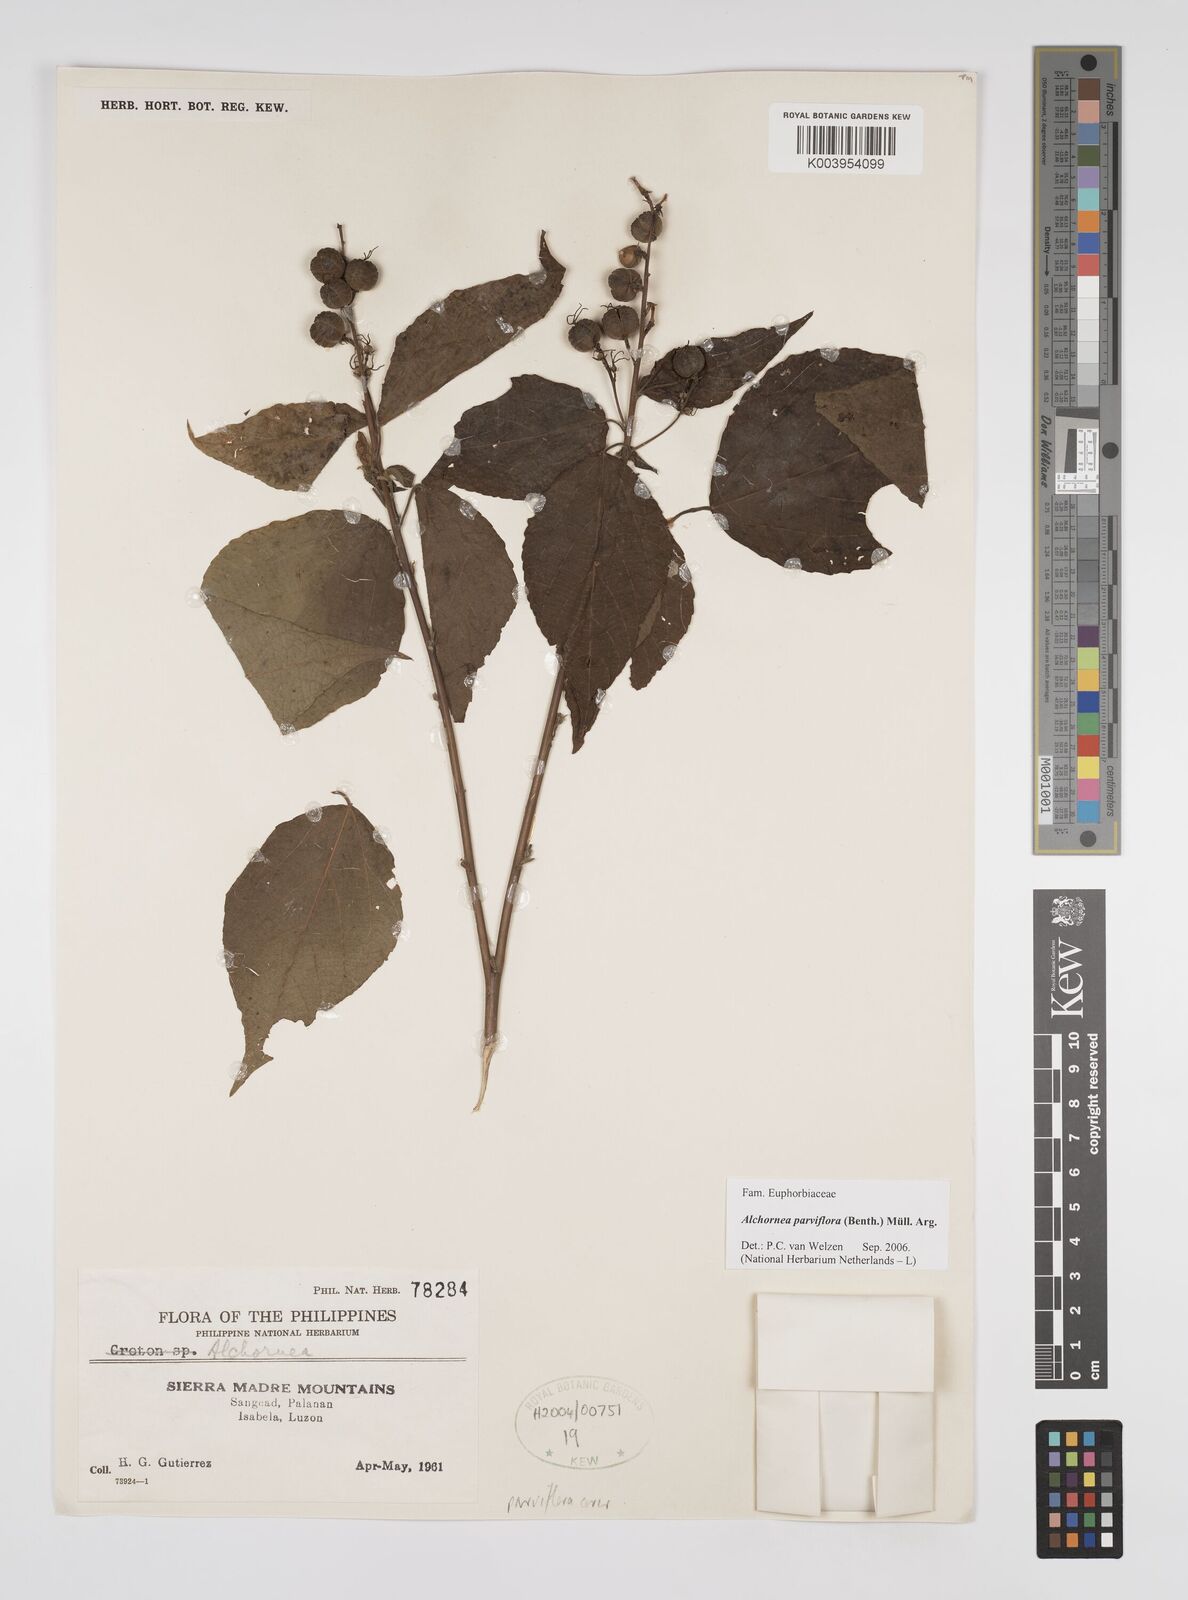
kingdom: Plantae
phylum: Tracheophyta
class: Magnoliopsida
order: Malpighiales
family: Euphorbiaceae
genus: Alchornea
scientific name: Alchornea parviflora
